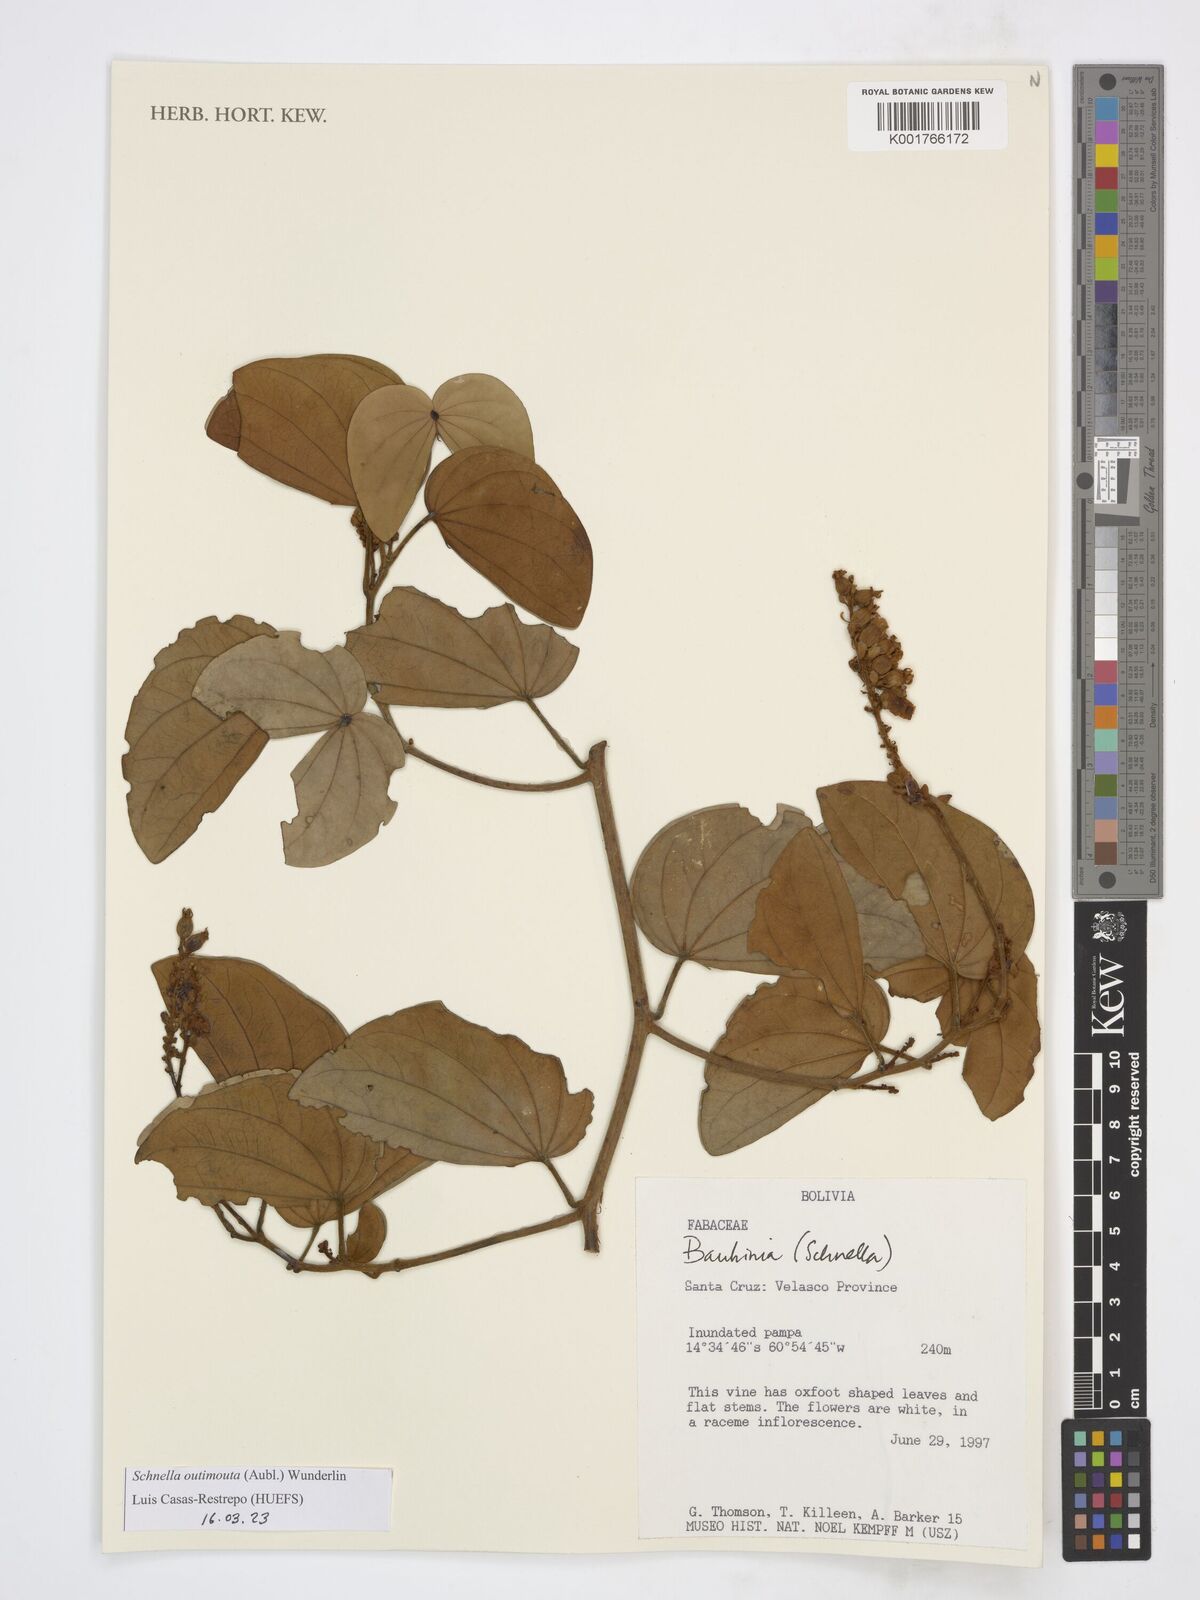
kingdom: Plantae
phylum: Tracheophyta
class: Magnoliopsida
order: Fabales
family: Fabaceae
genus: Schnella
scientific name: Schnella outimouta
